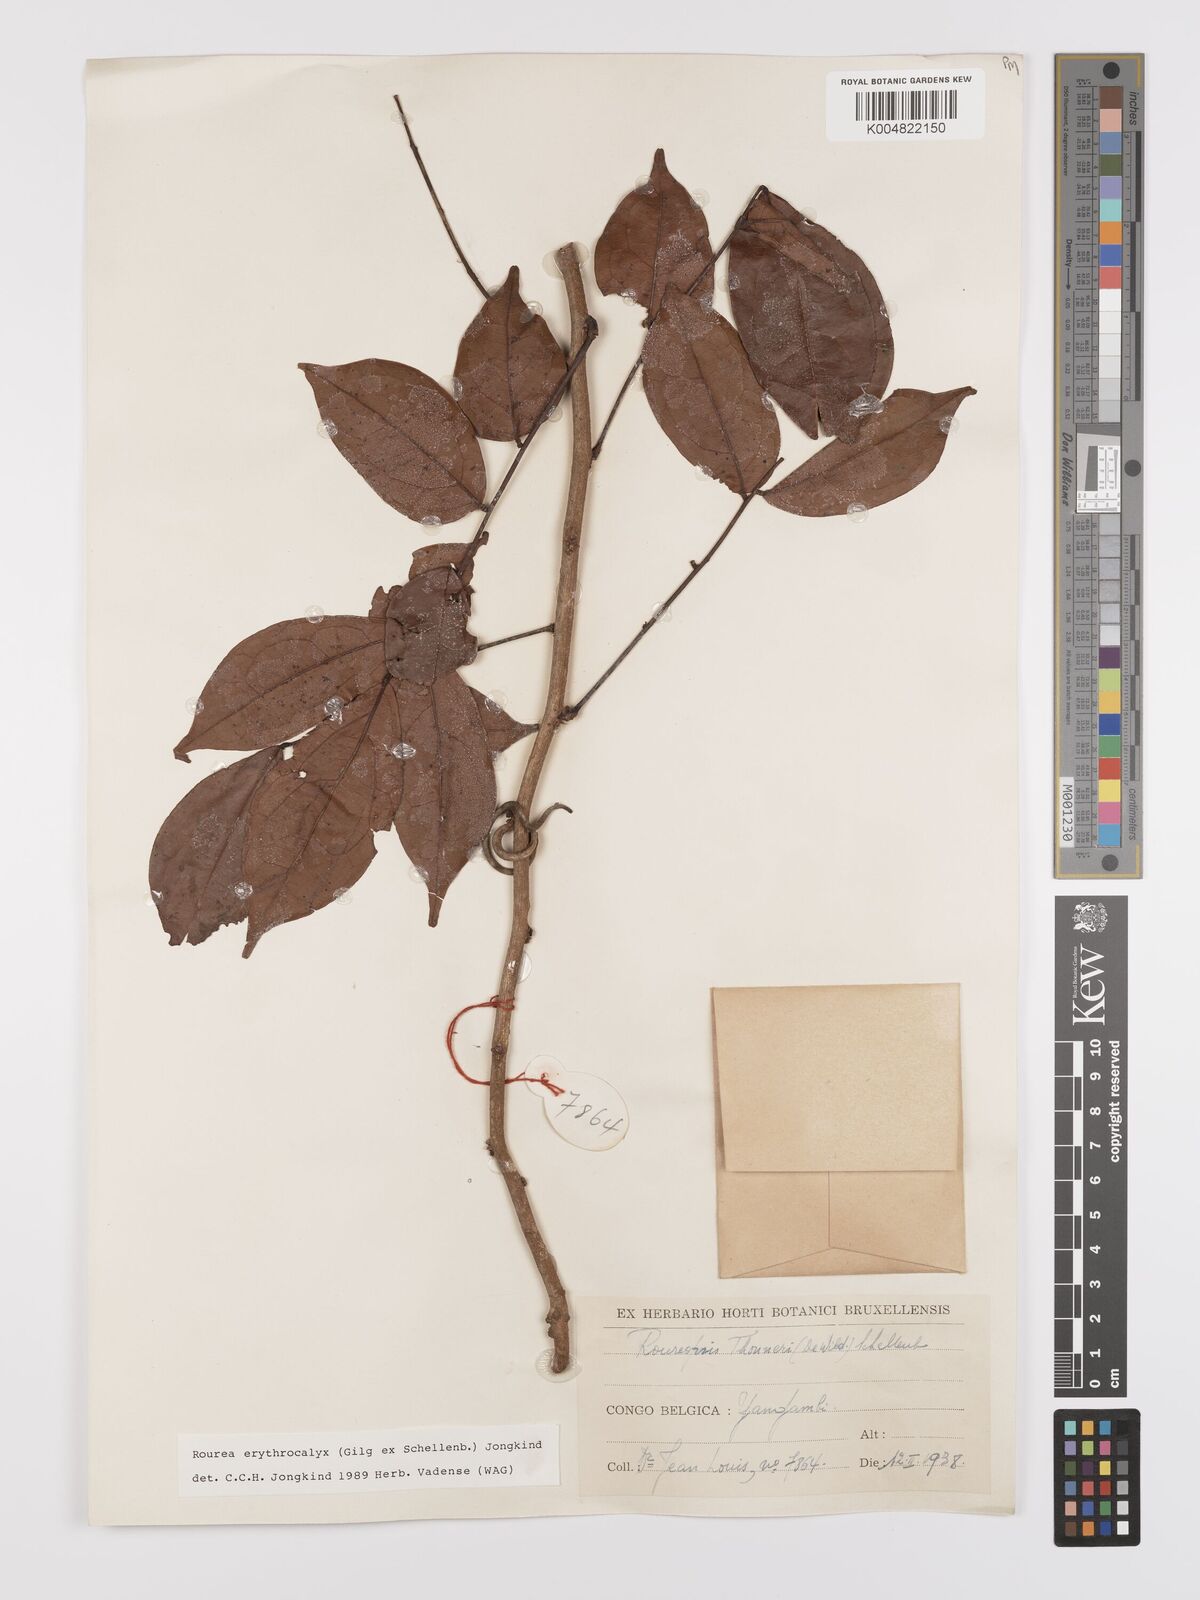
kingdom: Plantae
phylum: Tracheophyta
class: Magnoliopsida
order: Oxalidales
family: Connaraceae
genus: Rourea
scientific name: Rourea erythrocalyx
